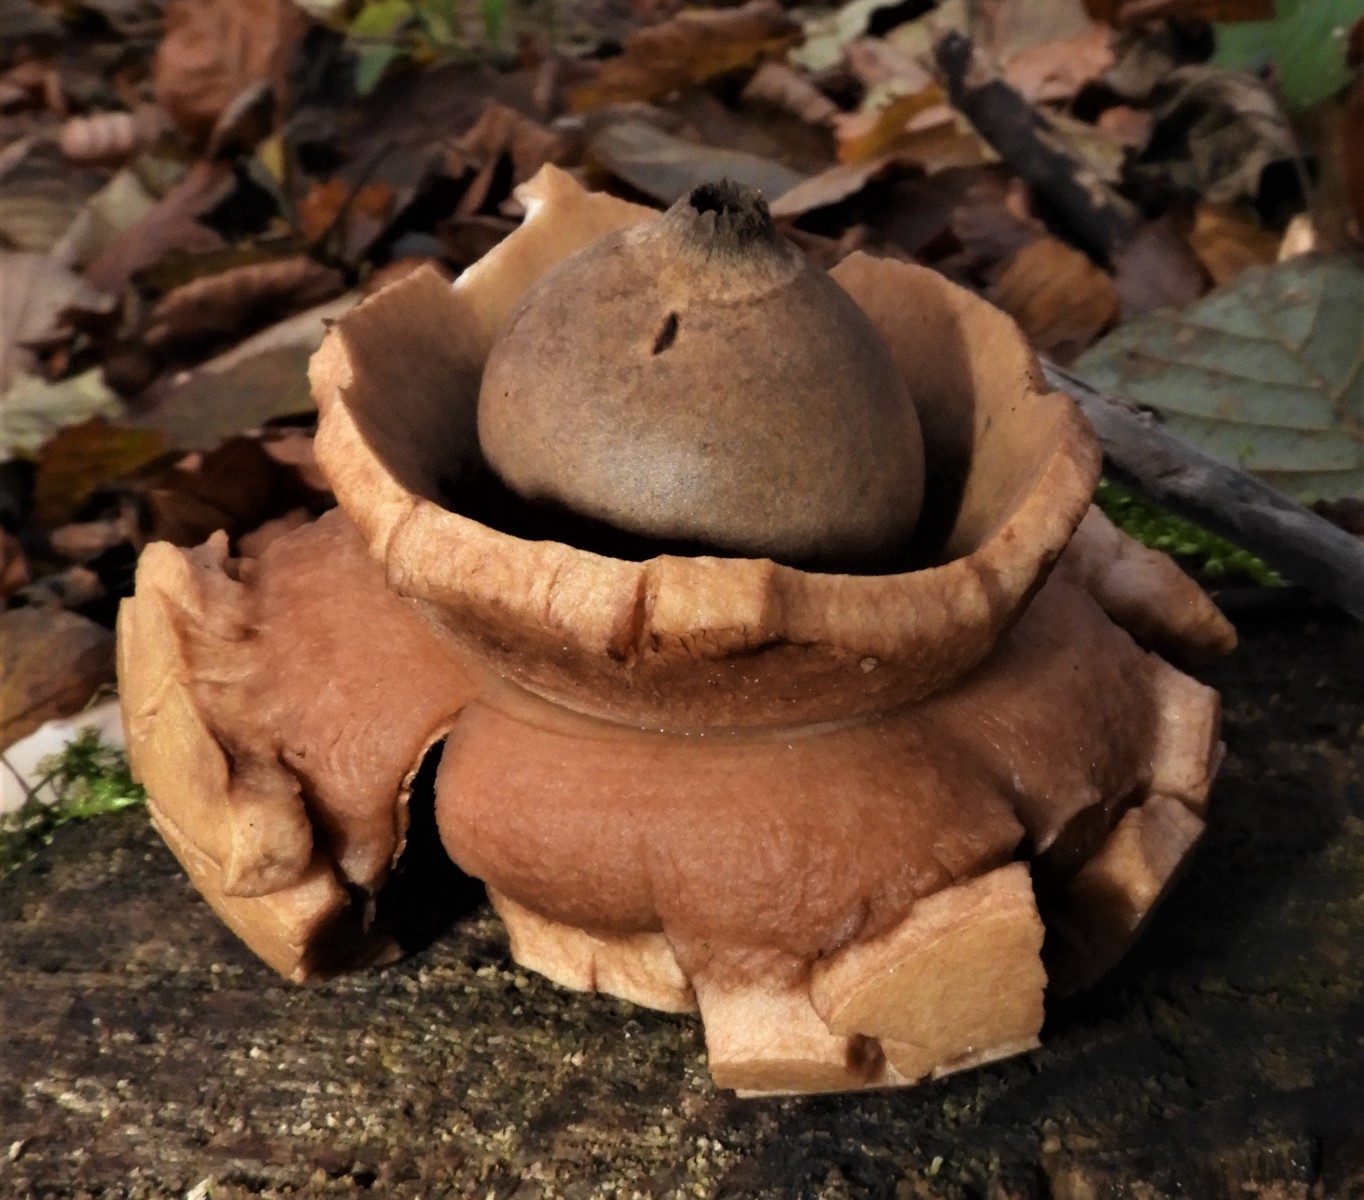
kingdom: Fungi
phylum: Basidiomycota
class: Agaricomycetes
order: Geastrales
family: Geastraceae
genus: Geastrum
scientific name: Geastrum michelianum
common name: kødet stjernebold
